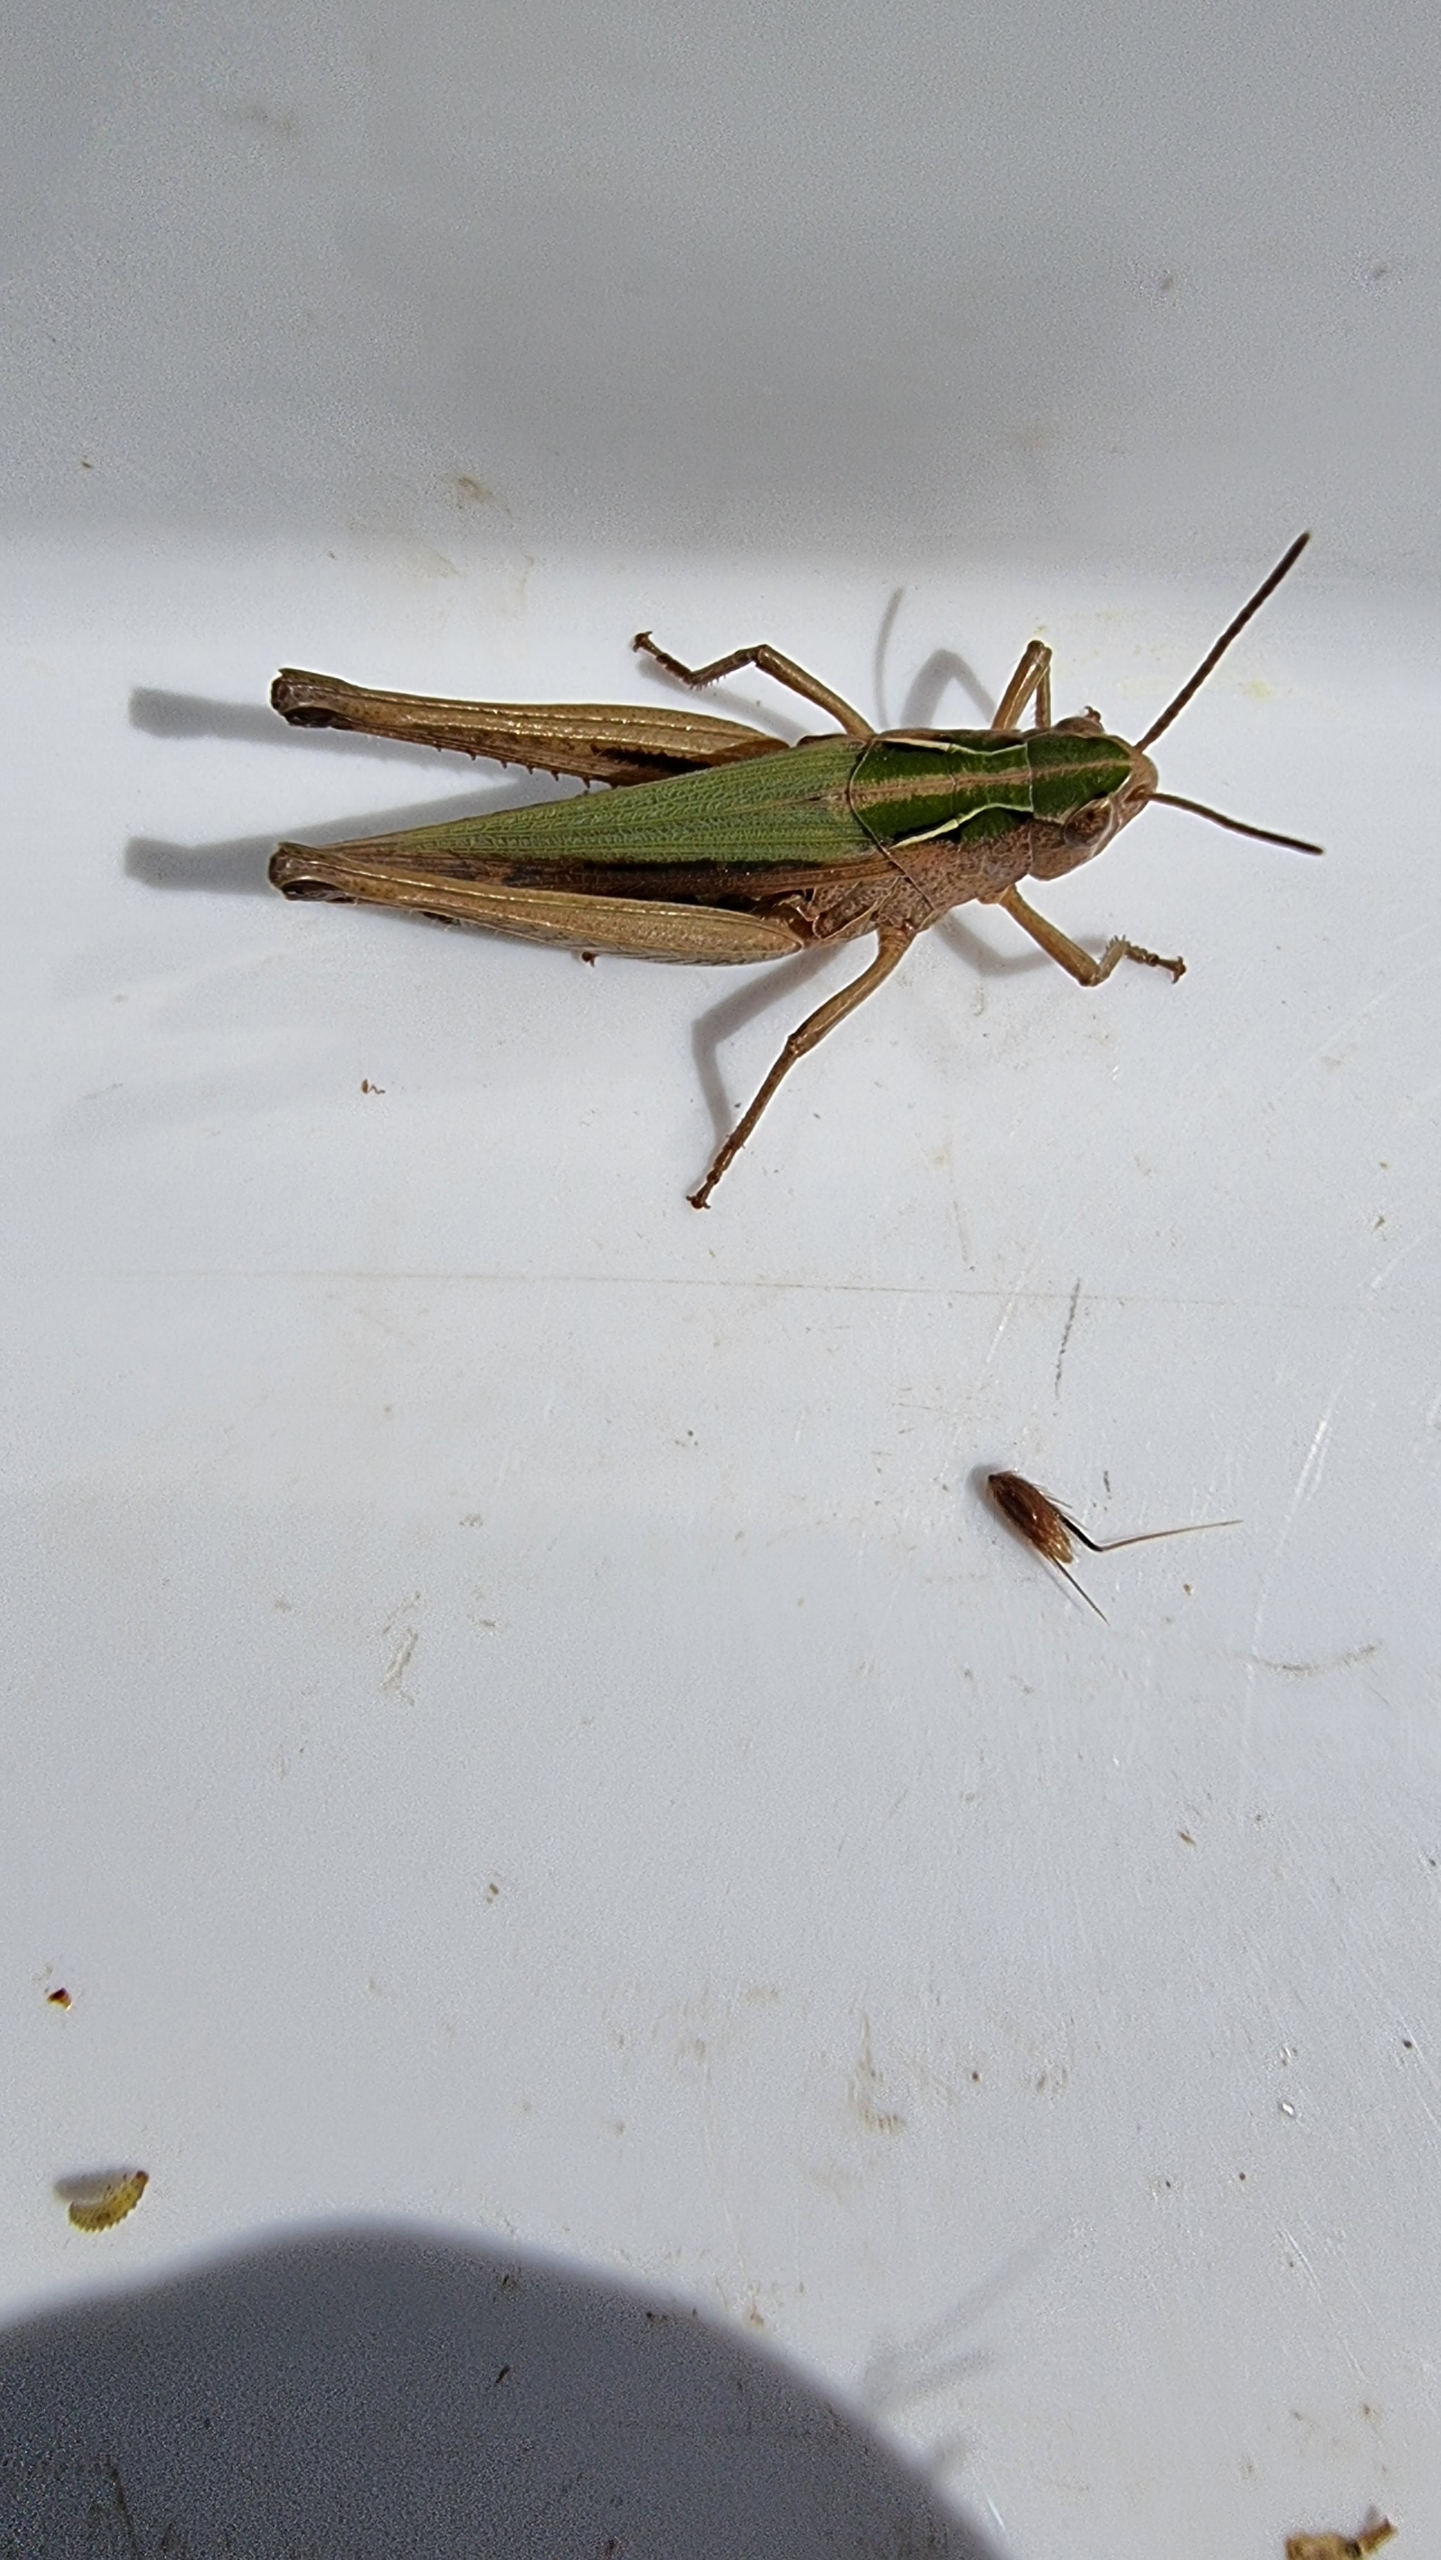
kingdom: Animalia
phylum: Arthropoda
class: Insecta
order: Orthoptera
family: Acrididae
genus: Omocestus
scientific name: Omocestus viridulus
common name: Lynggræshoppe
